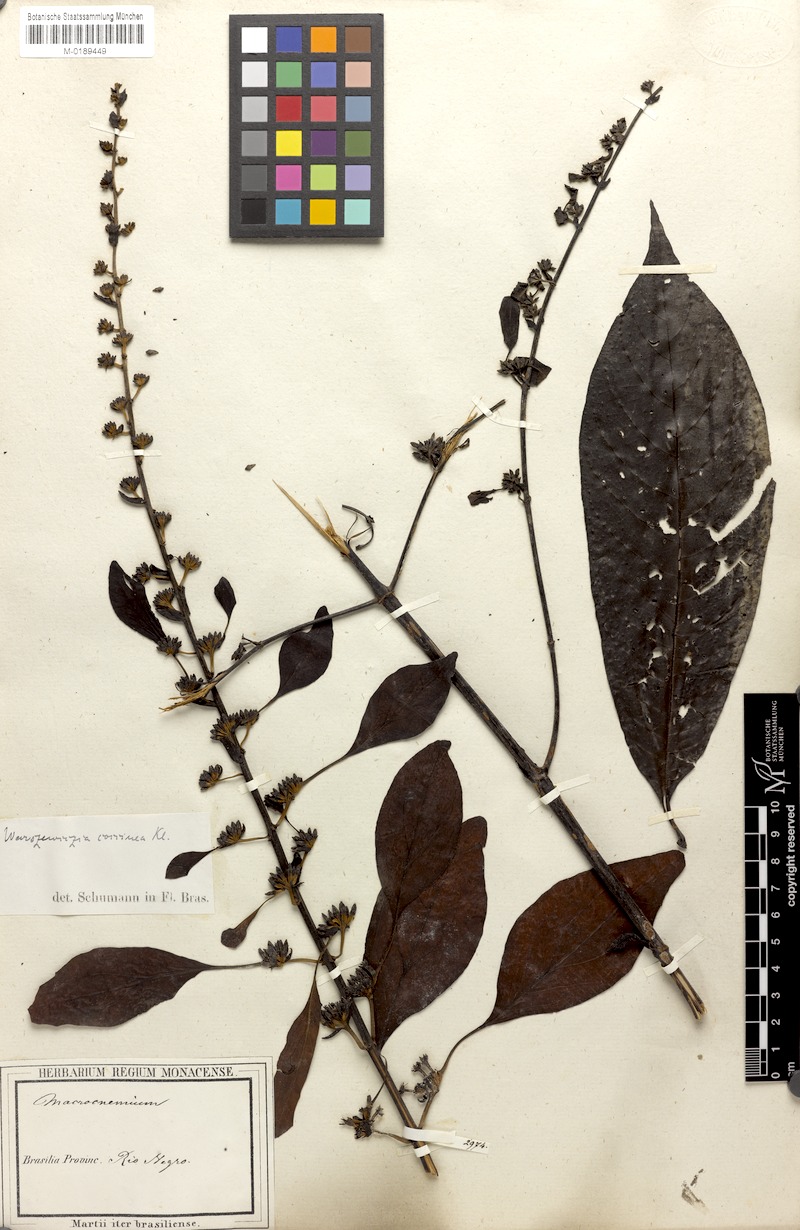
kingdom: Plantae
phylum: Tracheophyta
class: Magnoliopsida
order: Gentianales
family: Rubiaceae
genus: Warszewiczia
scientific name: Warszewiczia coccinea
